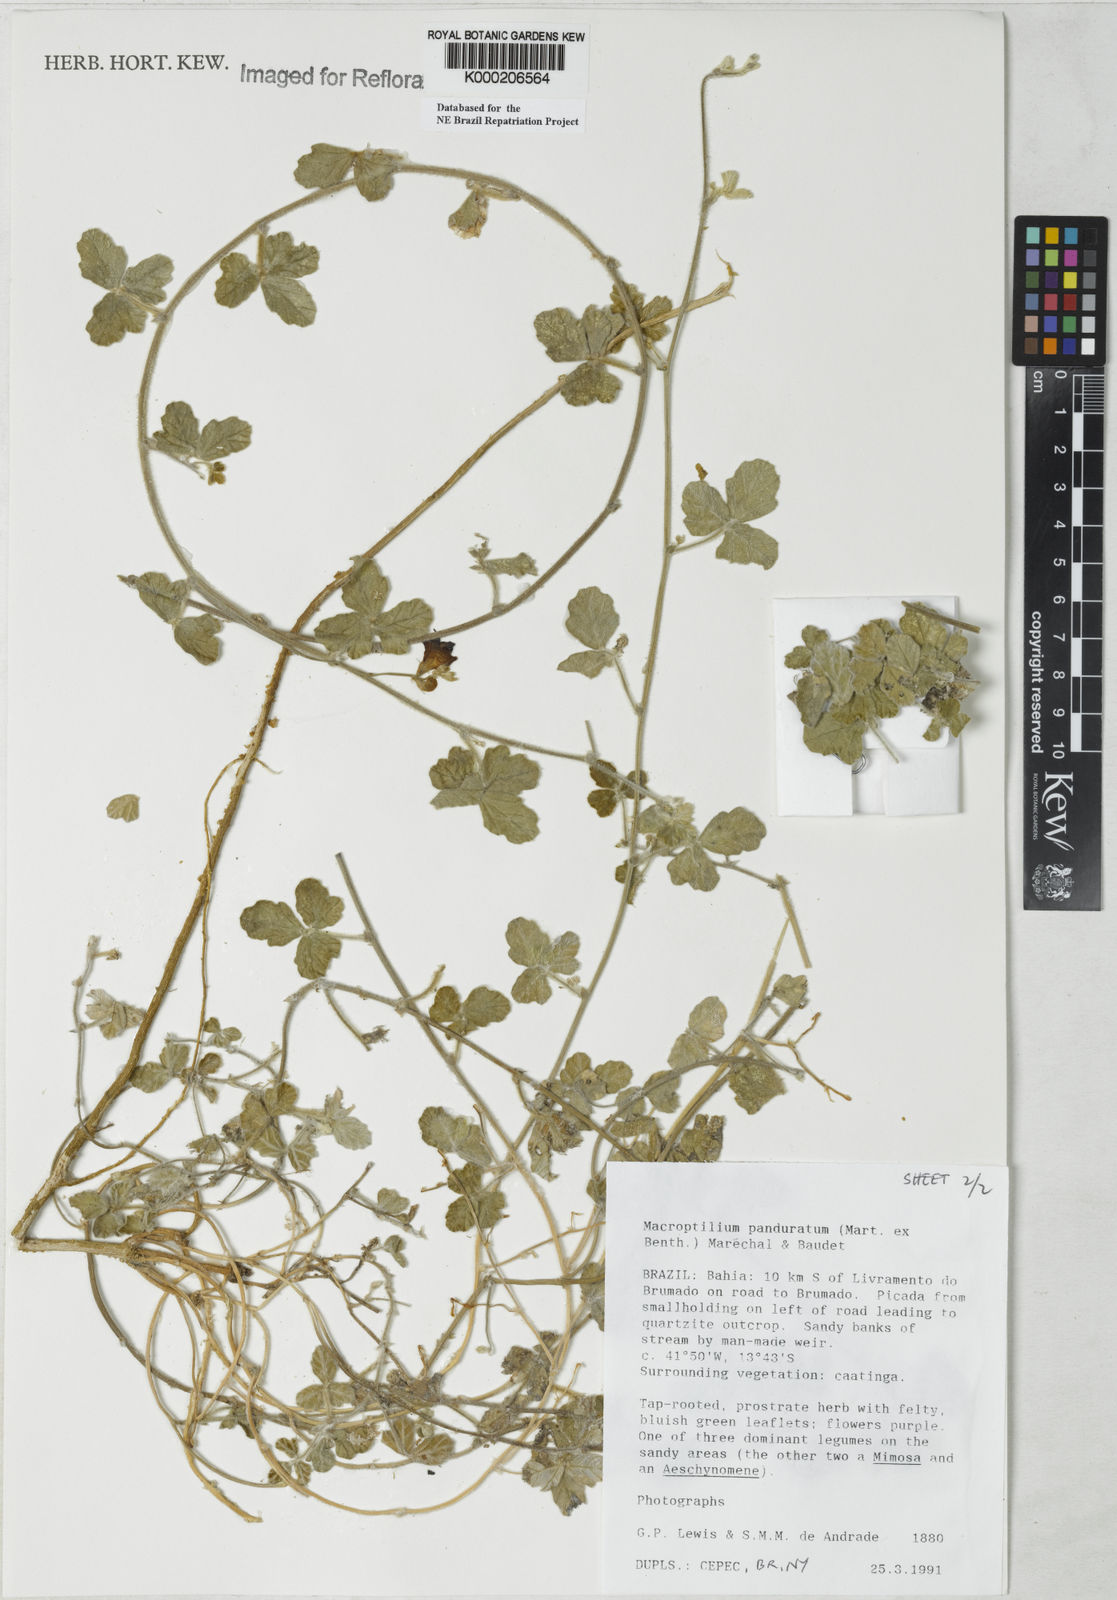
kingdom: Plantae
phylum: Tracheophyta
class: Magnoliopsida
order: Fabales
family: Fabaceae
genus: Macroptilium
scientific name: Macroptilium
